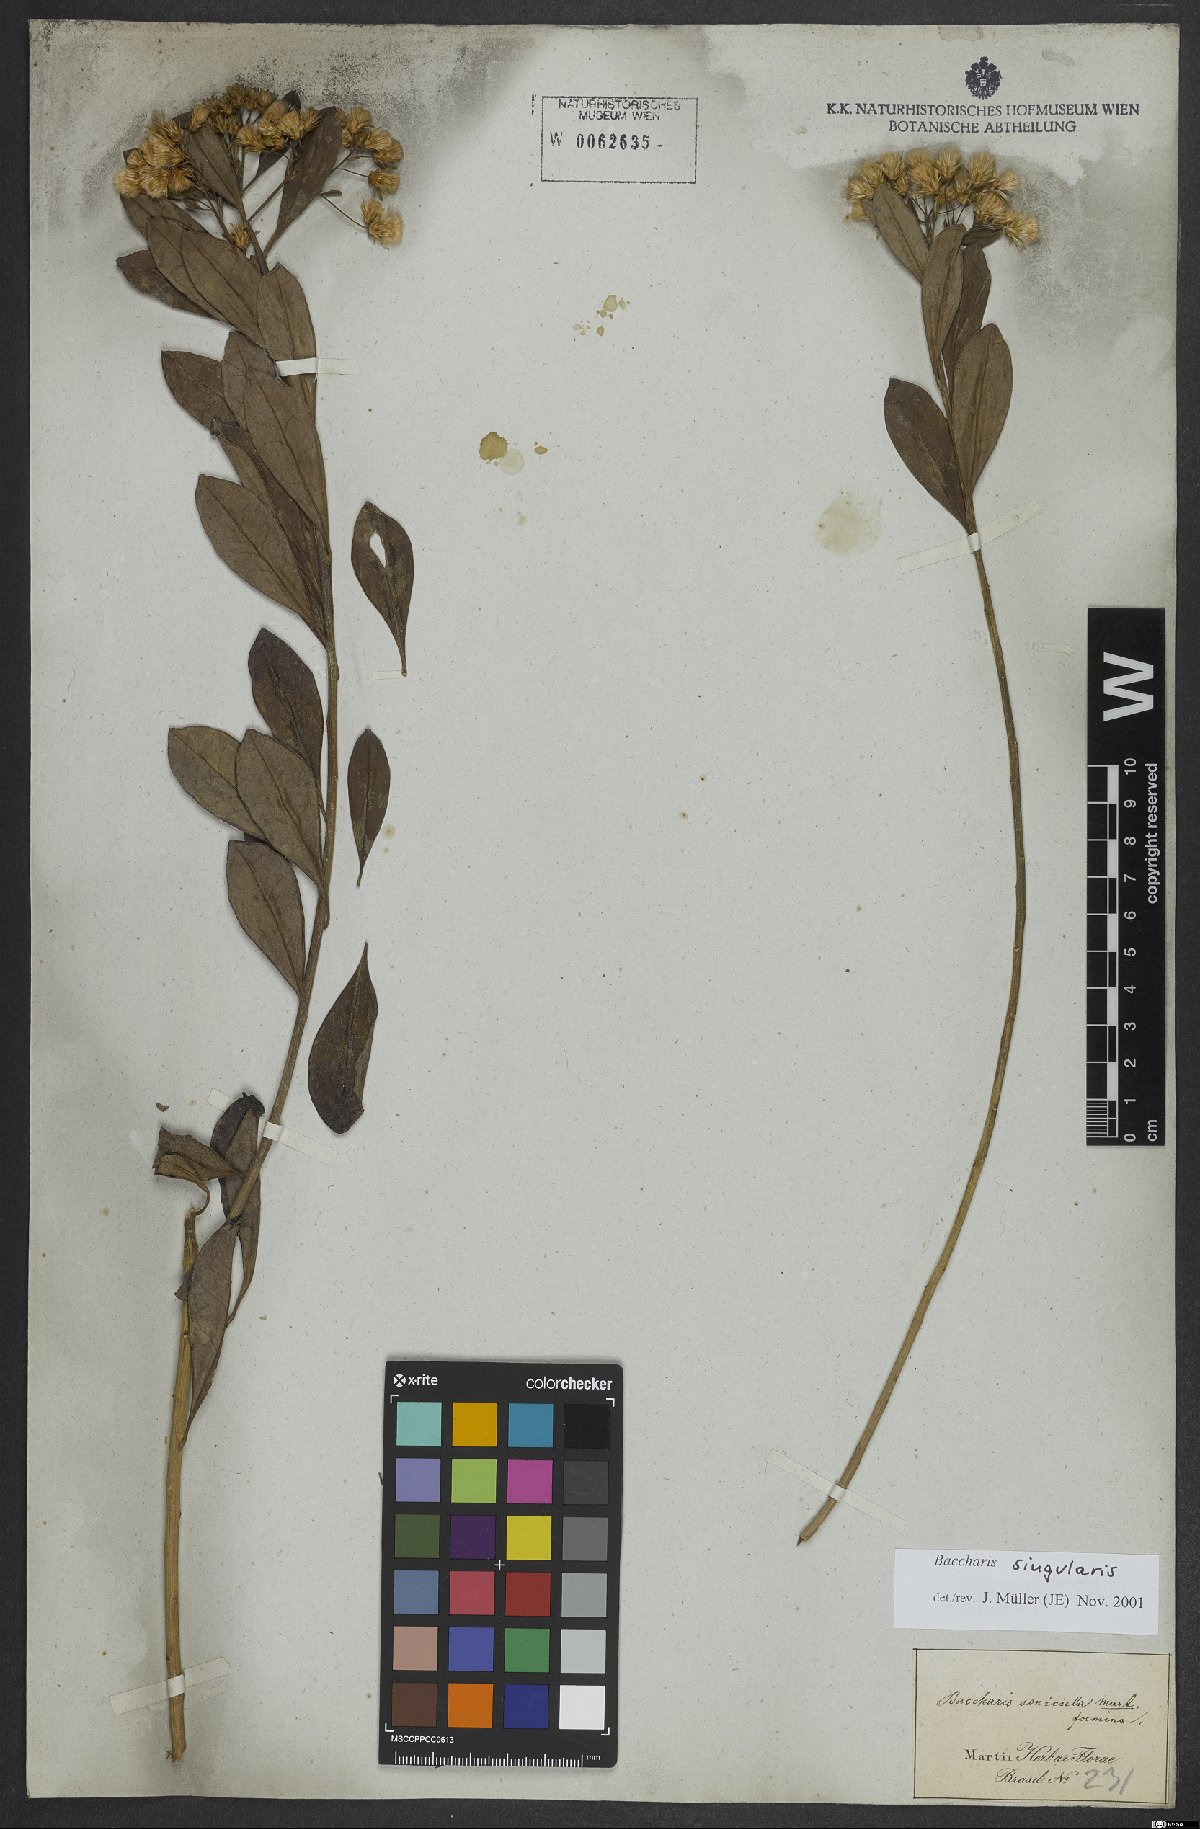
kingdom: Plantae
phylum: Tracheophyta
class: Magnoliopsida
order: Asterales
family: Asteraceae
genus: Baccharis
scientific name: Baccharis singularis
